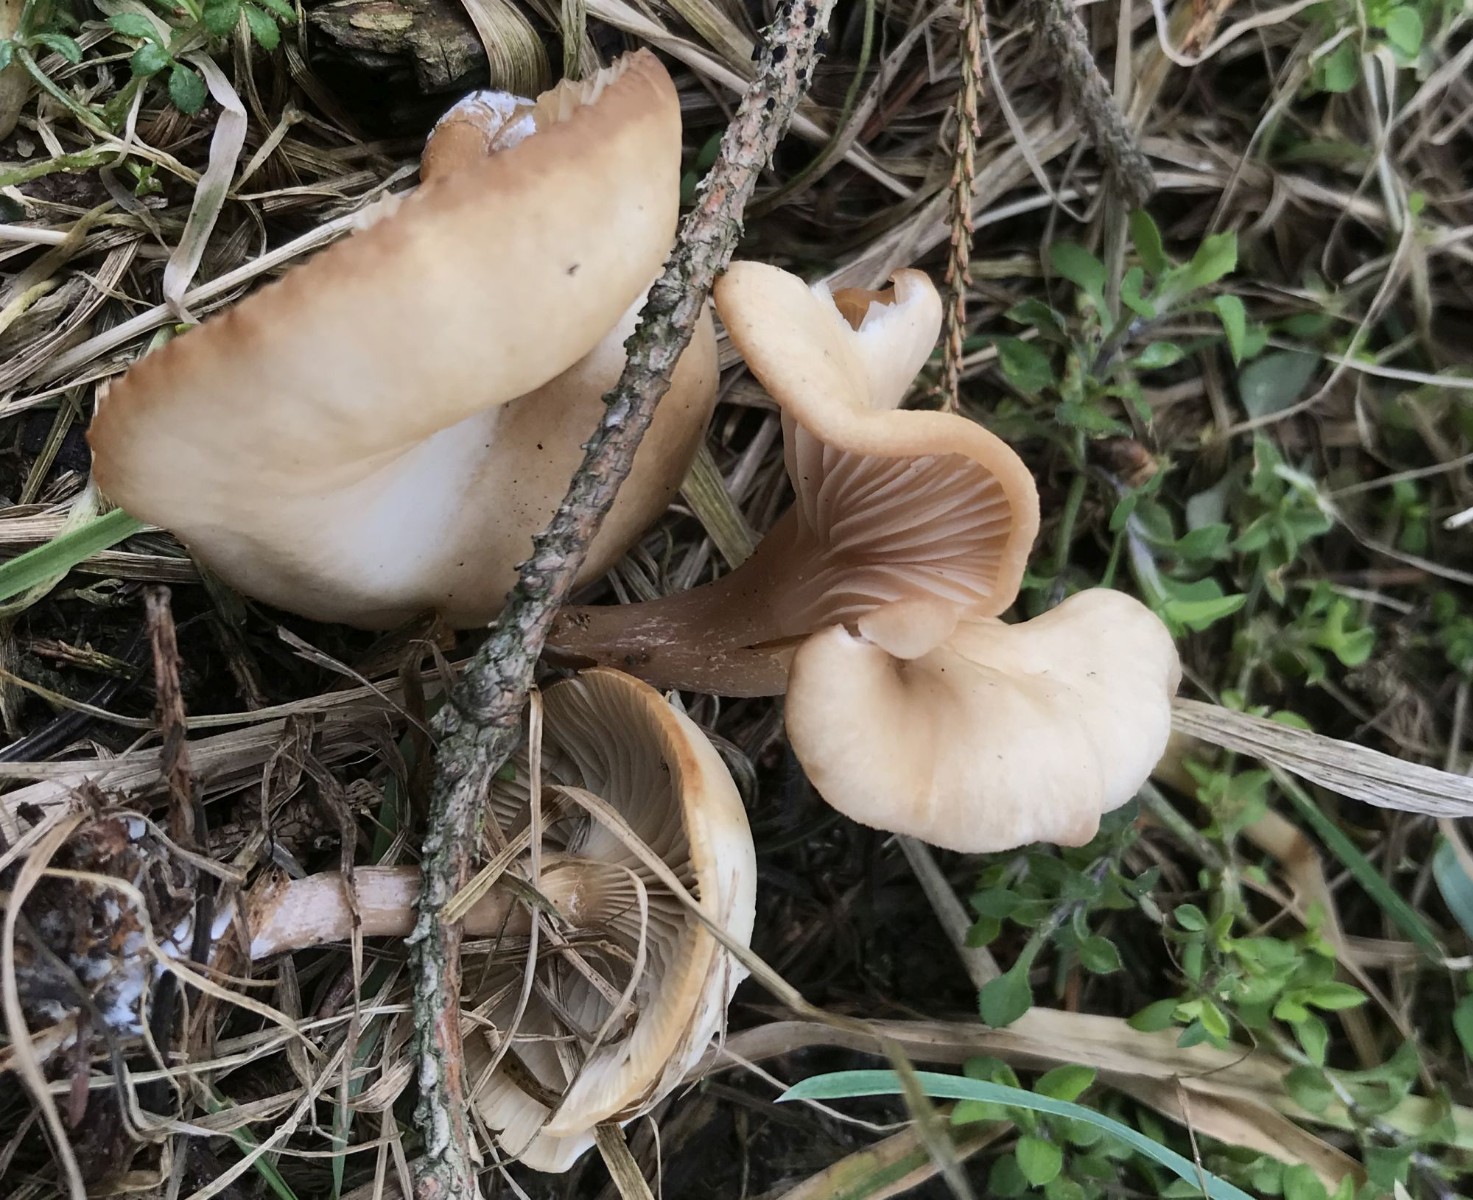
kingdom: Fungi
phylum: Basidiomycota
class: Agaricomycetes
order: Agaricales
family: Tricholomataceae
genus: Clitocybe
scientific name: Clitocybe fragrans
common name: vellugtende tragthat
